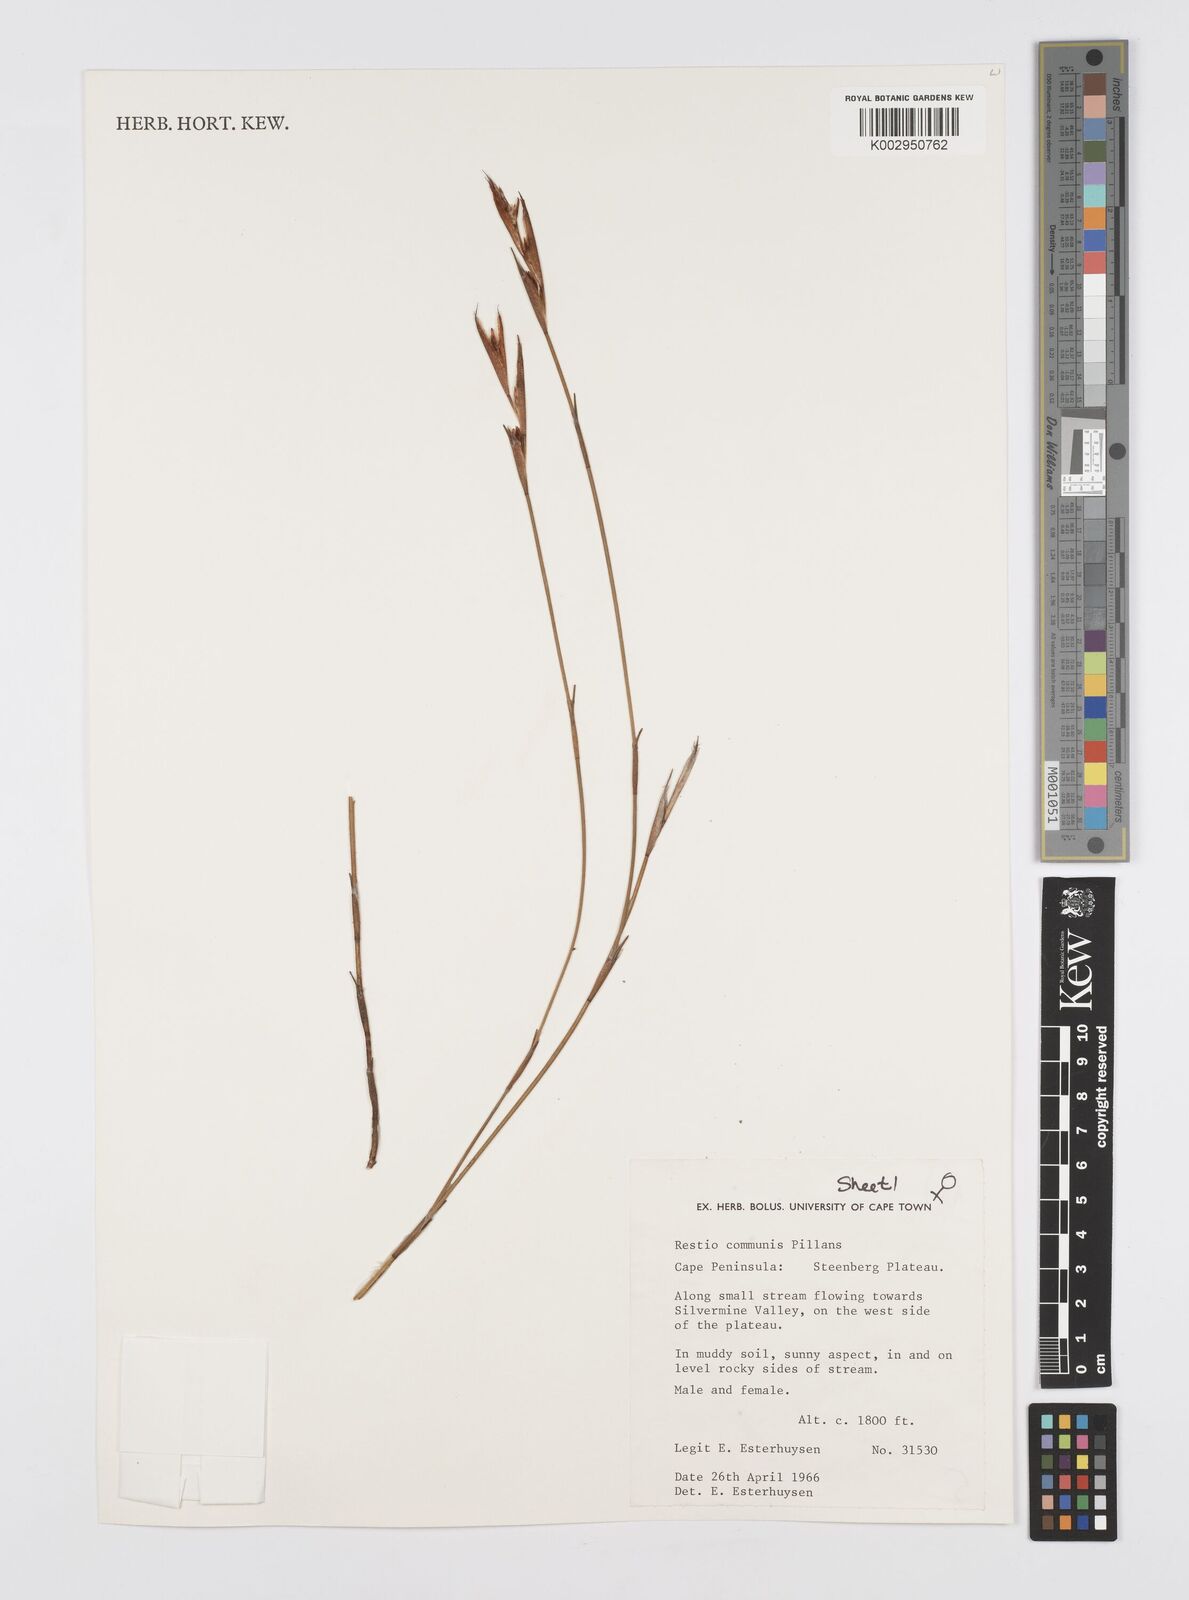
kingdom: Plantae
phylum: Tracheophyta
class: Liliopsida
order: Poales
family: Restionaceae
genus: Restio
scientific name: Restio communis
